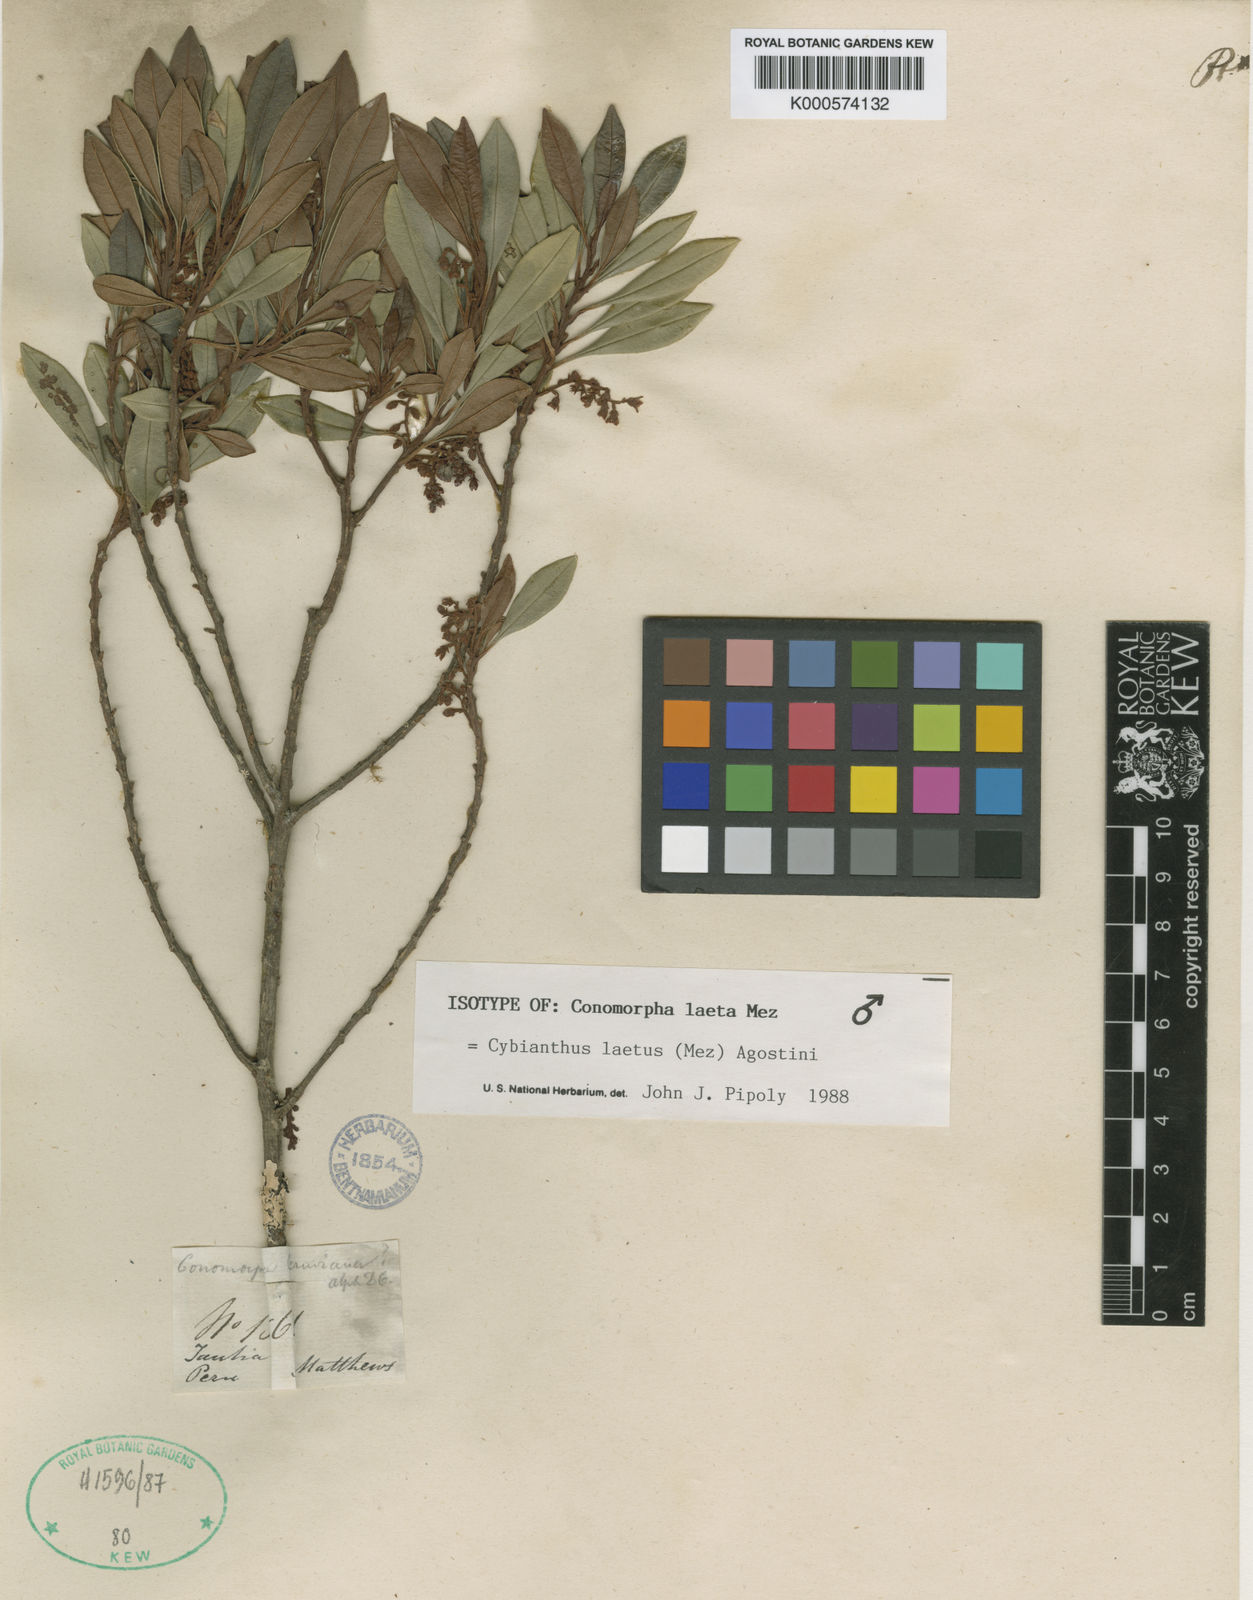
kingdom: Plantae
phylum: Tracheophyta
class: Magnoliopsida
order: Ericales
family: Primulaceae
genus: Cybianthus
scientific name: Cybianthus laetus
